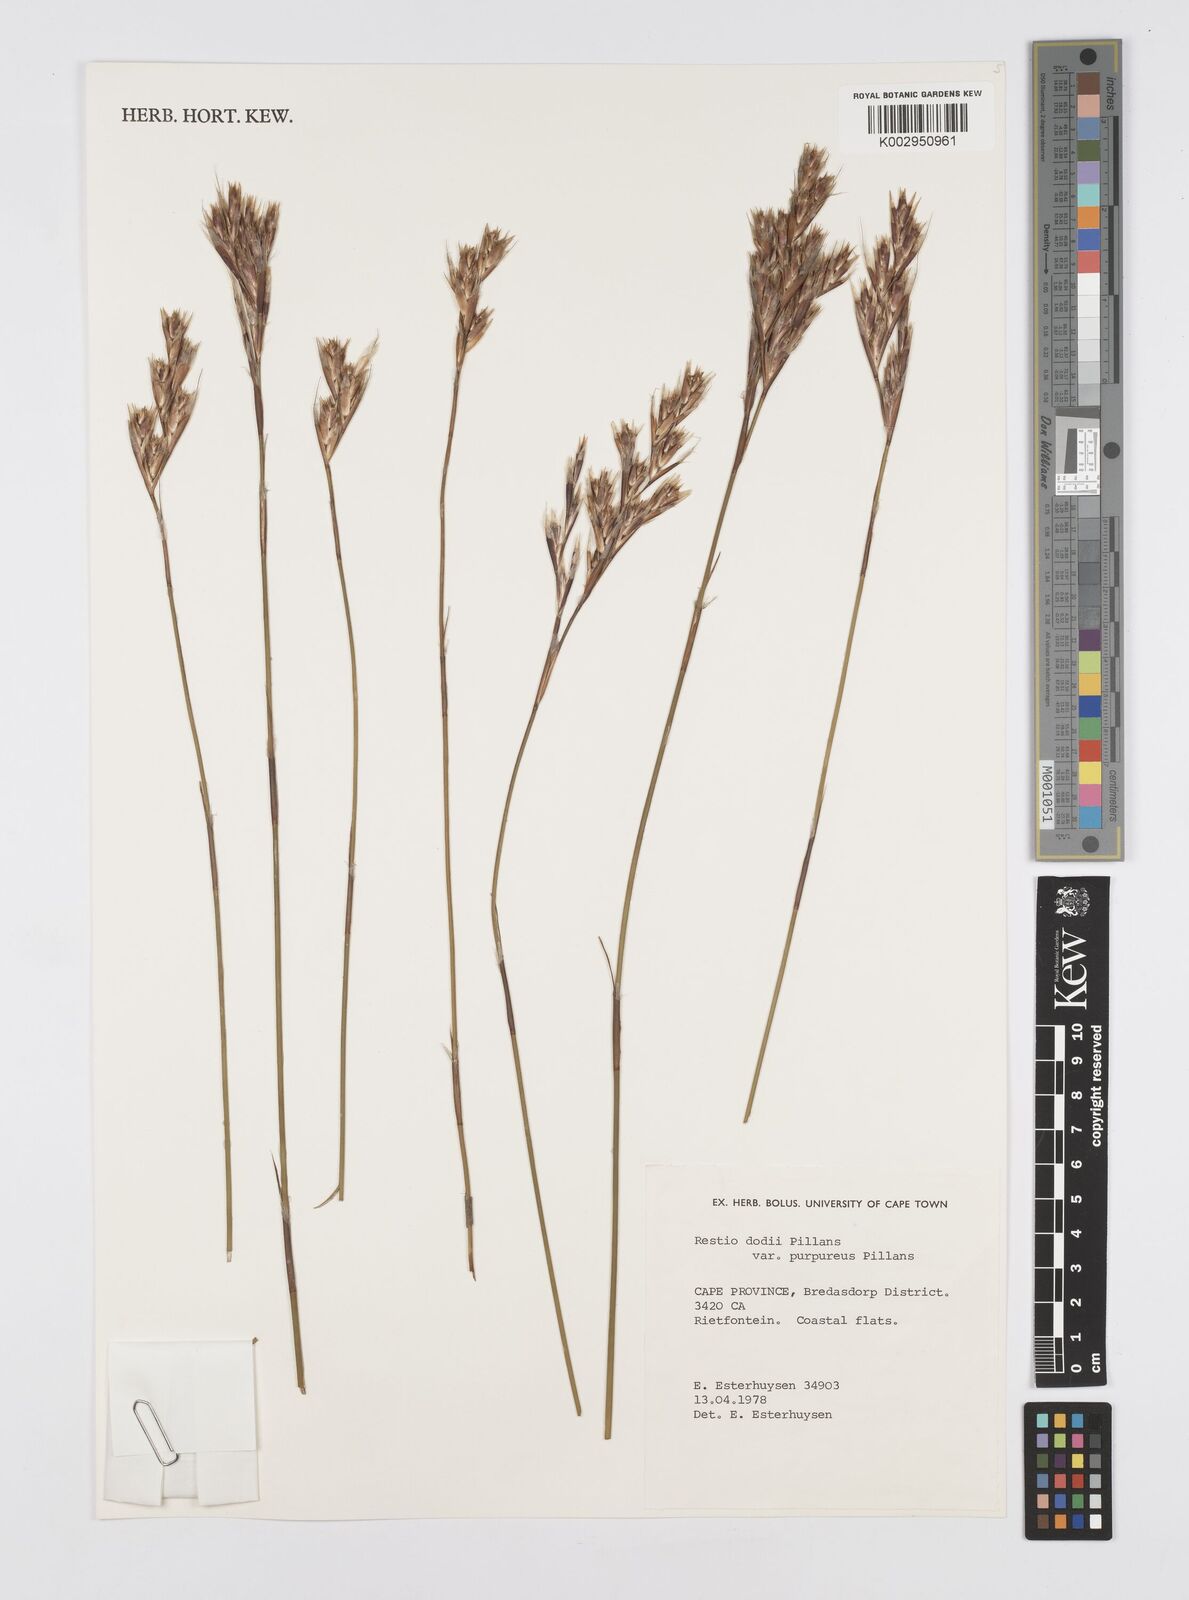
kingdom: Plantae
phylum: Tracheophyta
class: Liliopsida
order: Poales
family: Restionaceae
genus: Restio
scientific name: Restio dodii
